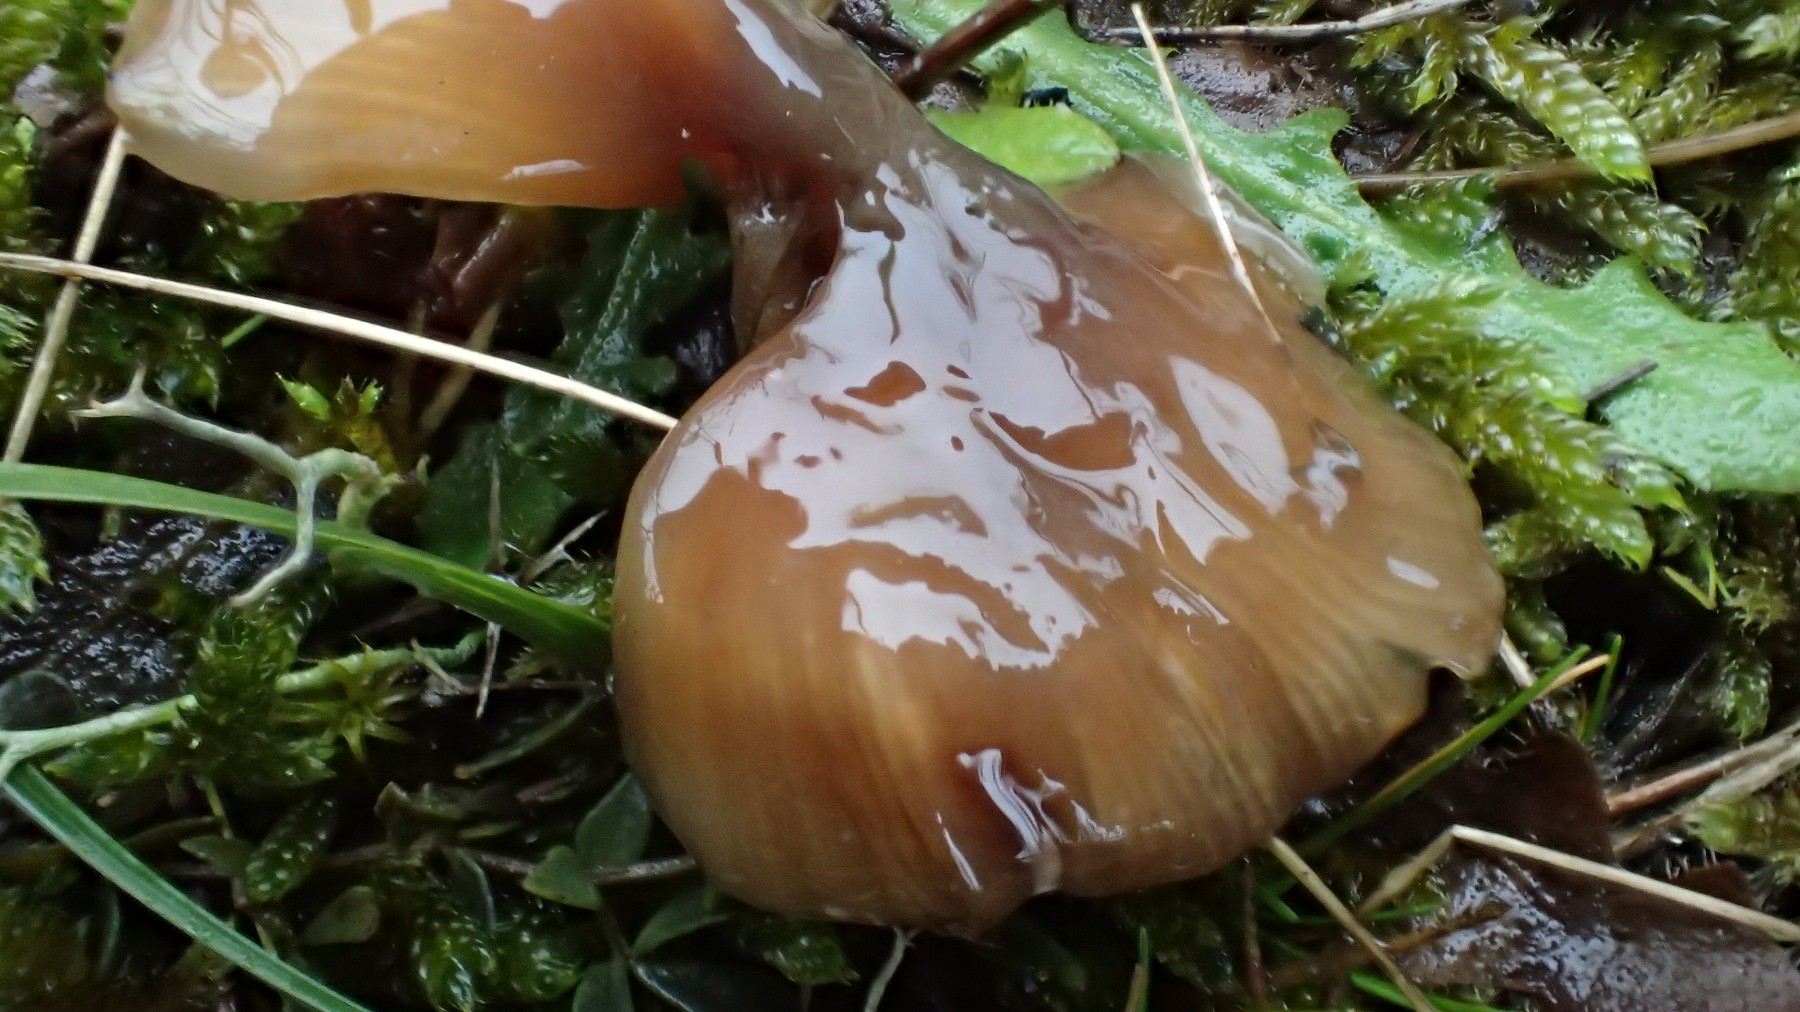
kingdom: Fungi
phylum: Basidiomycota
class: Agaricomycetes
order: Agaricales
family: Hygrophoraceae
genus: Gliophorus
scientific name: Gliophorus irrigatus
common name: slimet vokshat
